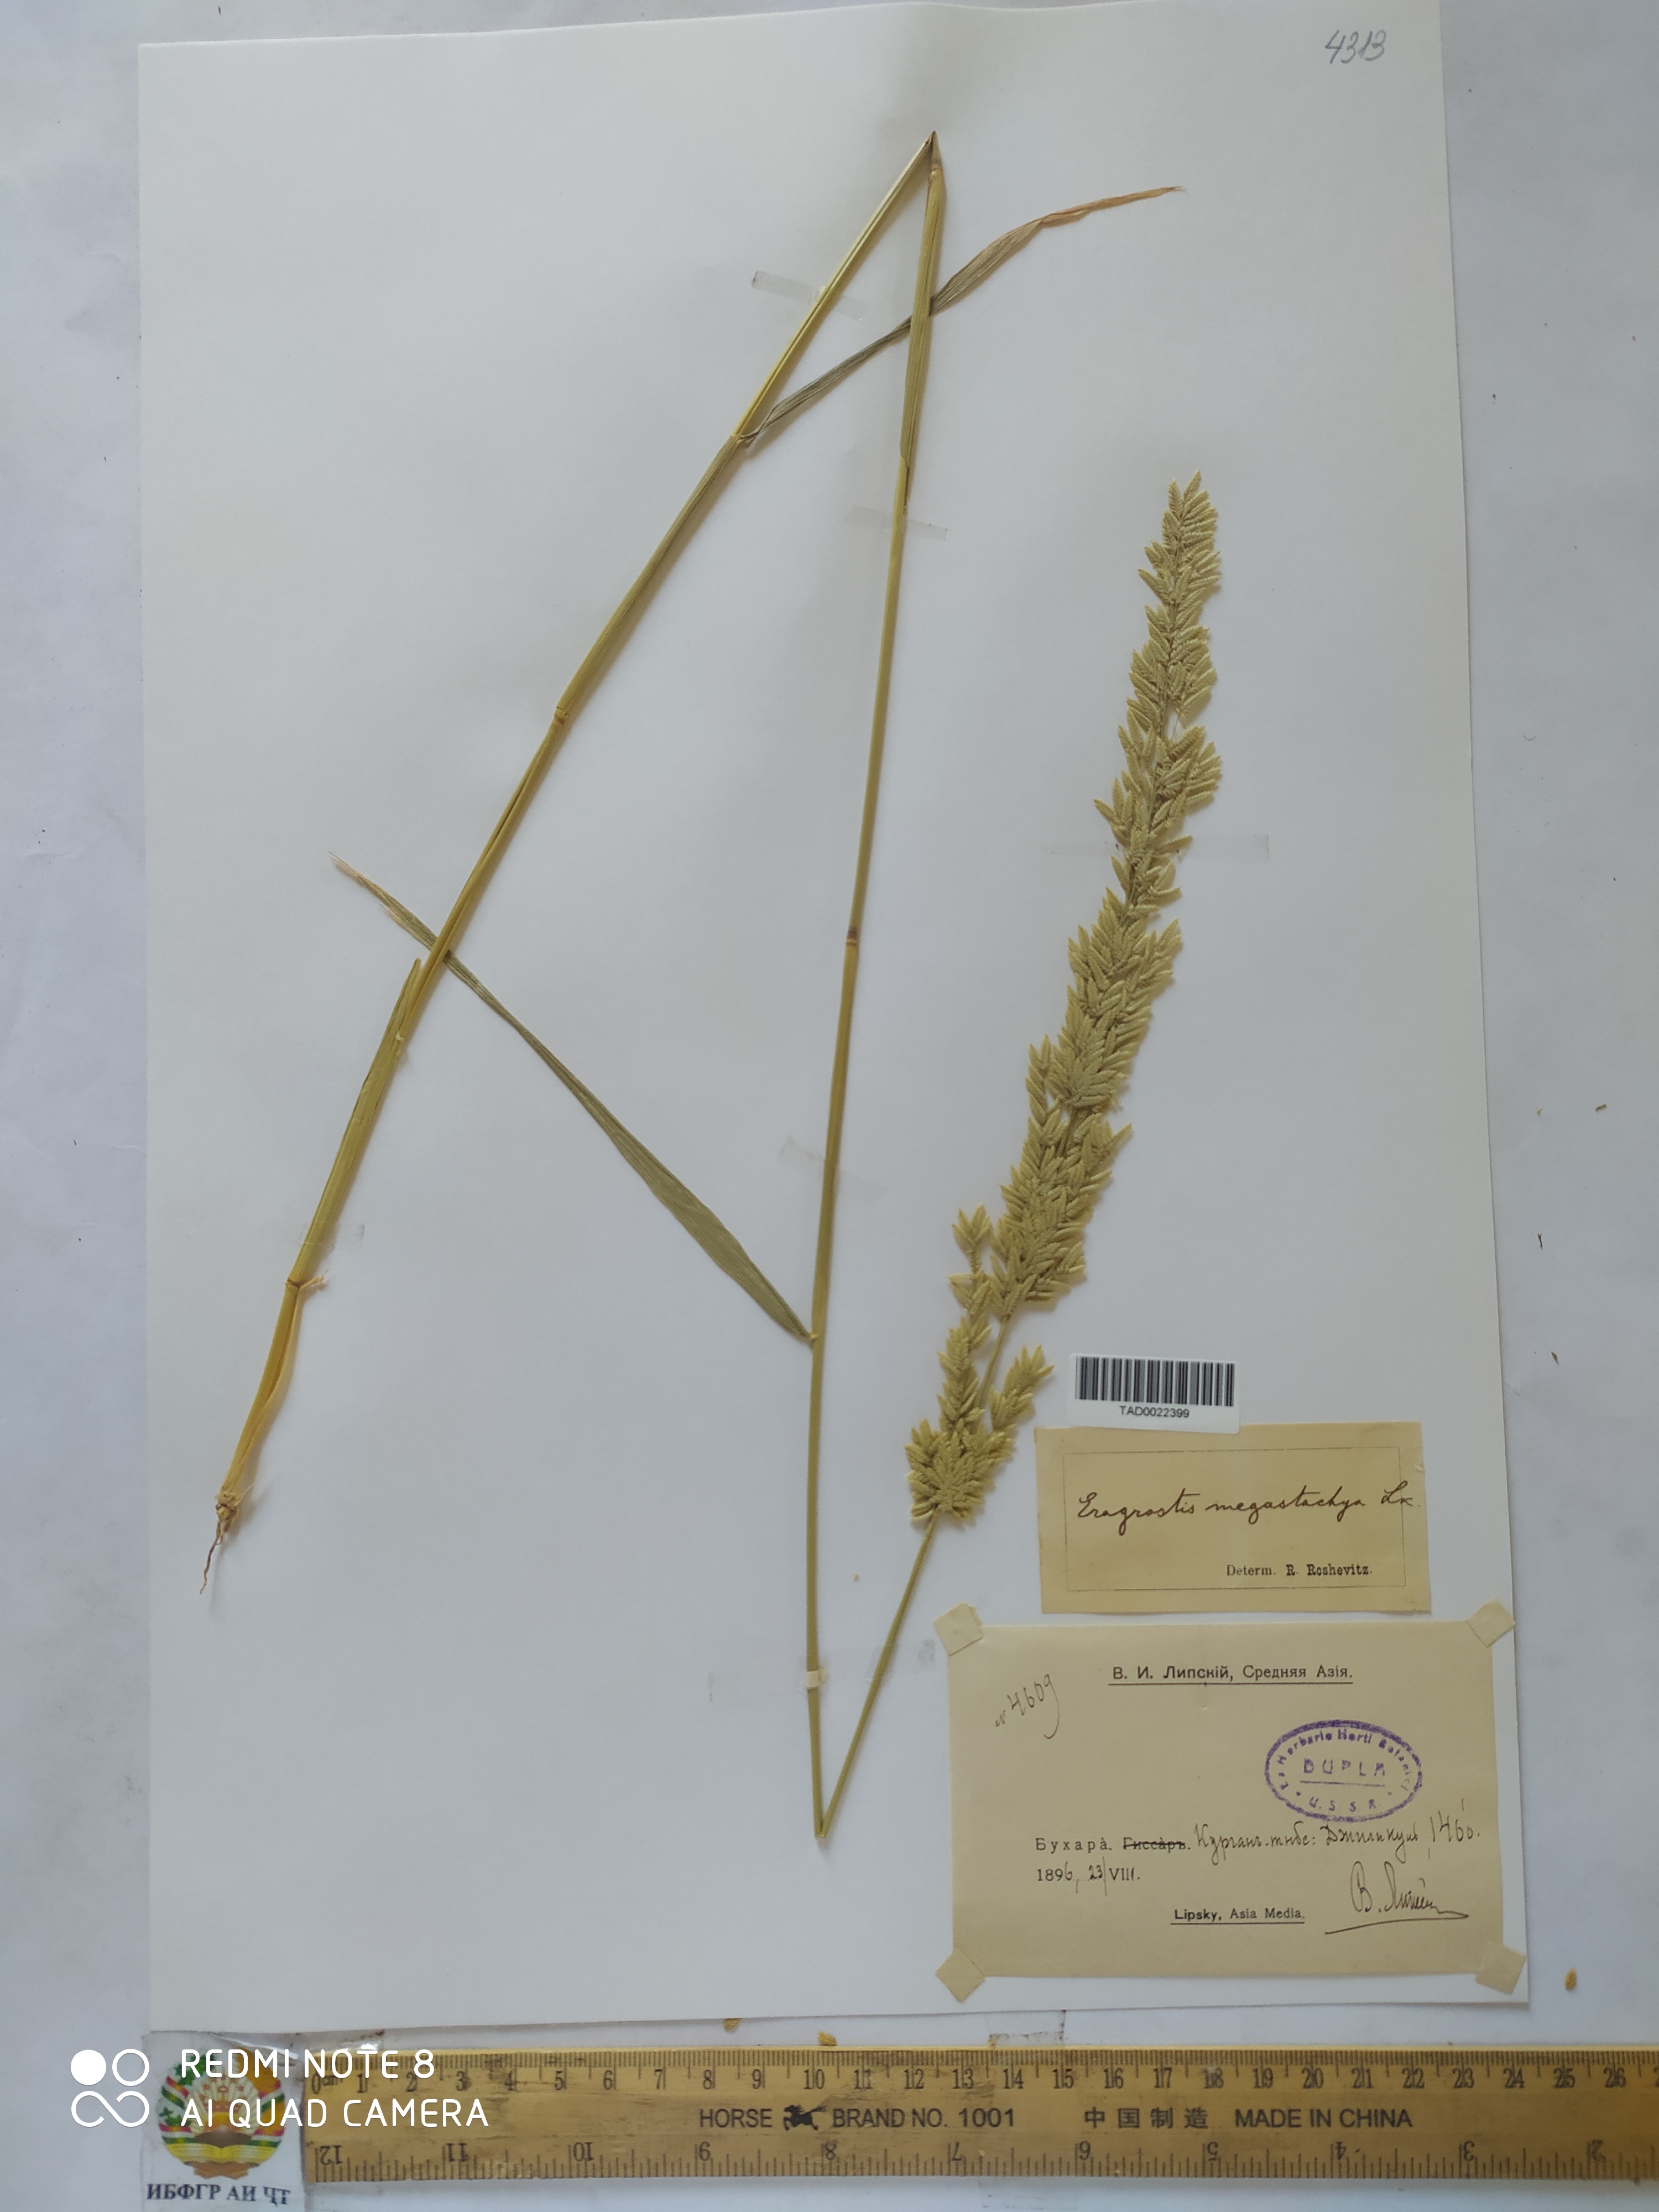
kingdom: Plantae
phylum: Tracheophyta
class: Liliopsida
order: Poales
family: Poaceae
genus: Eragrostis
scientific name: Eragrostis cilianensis
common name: Stinkgrass
